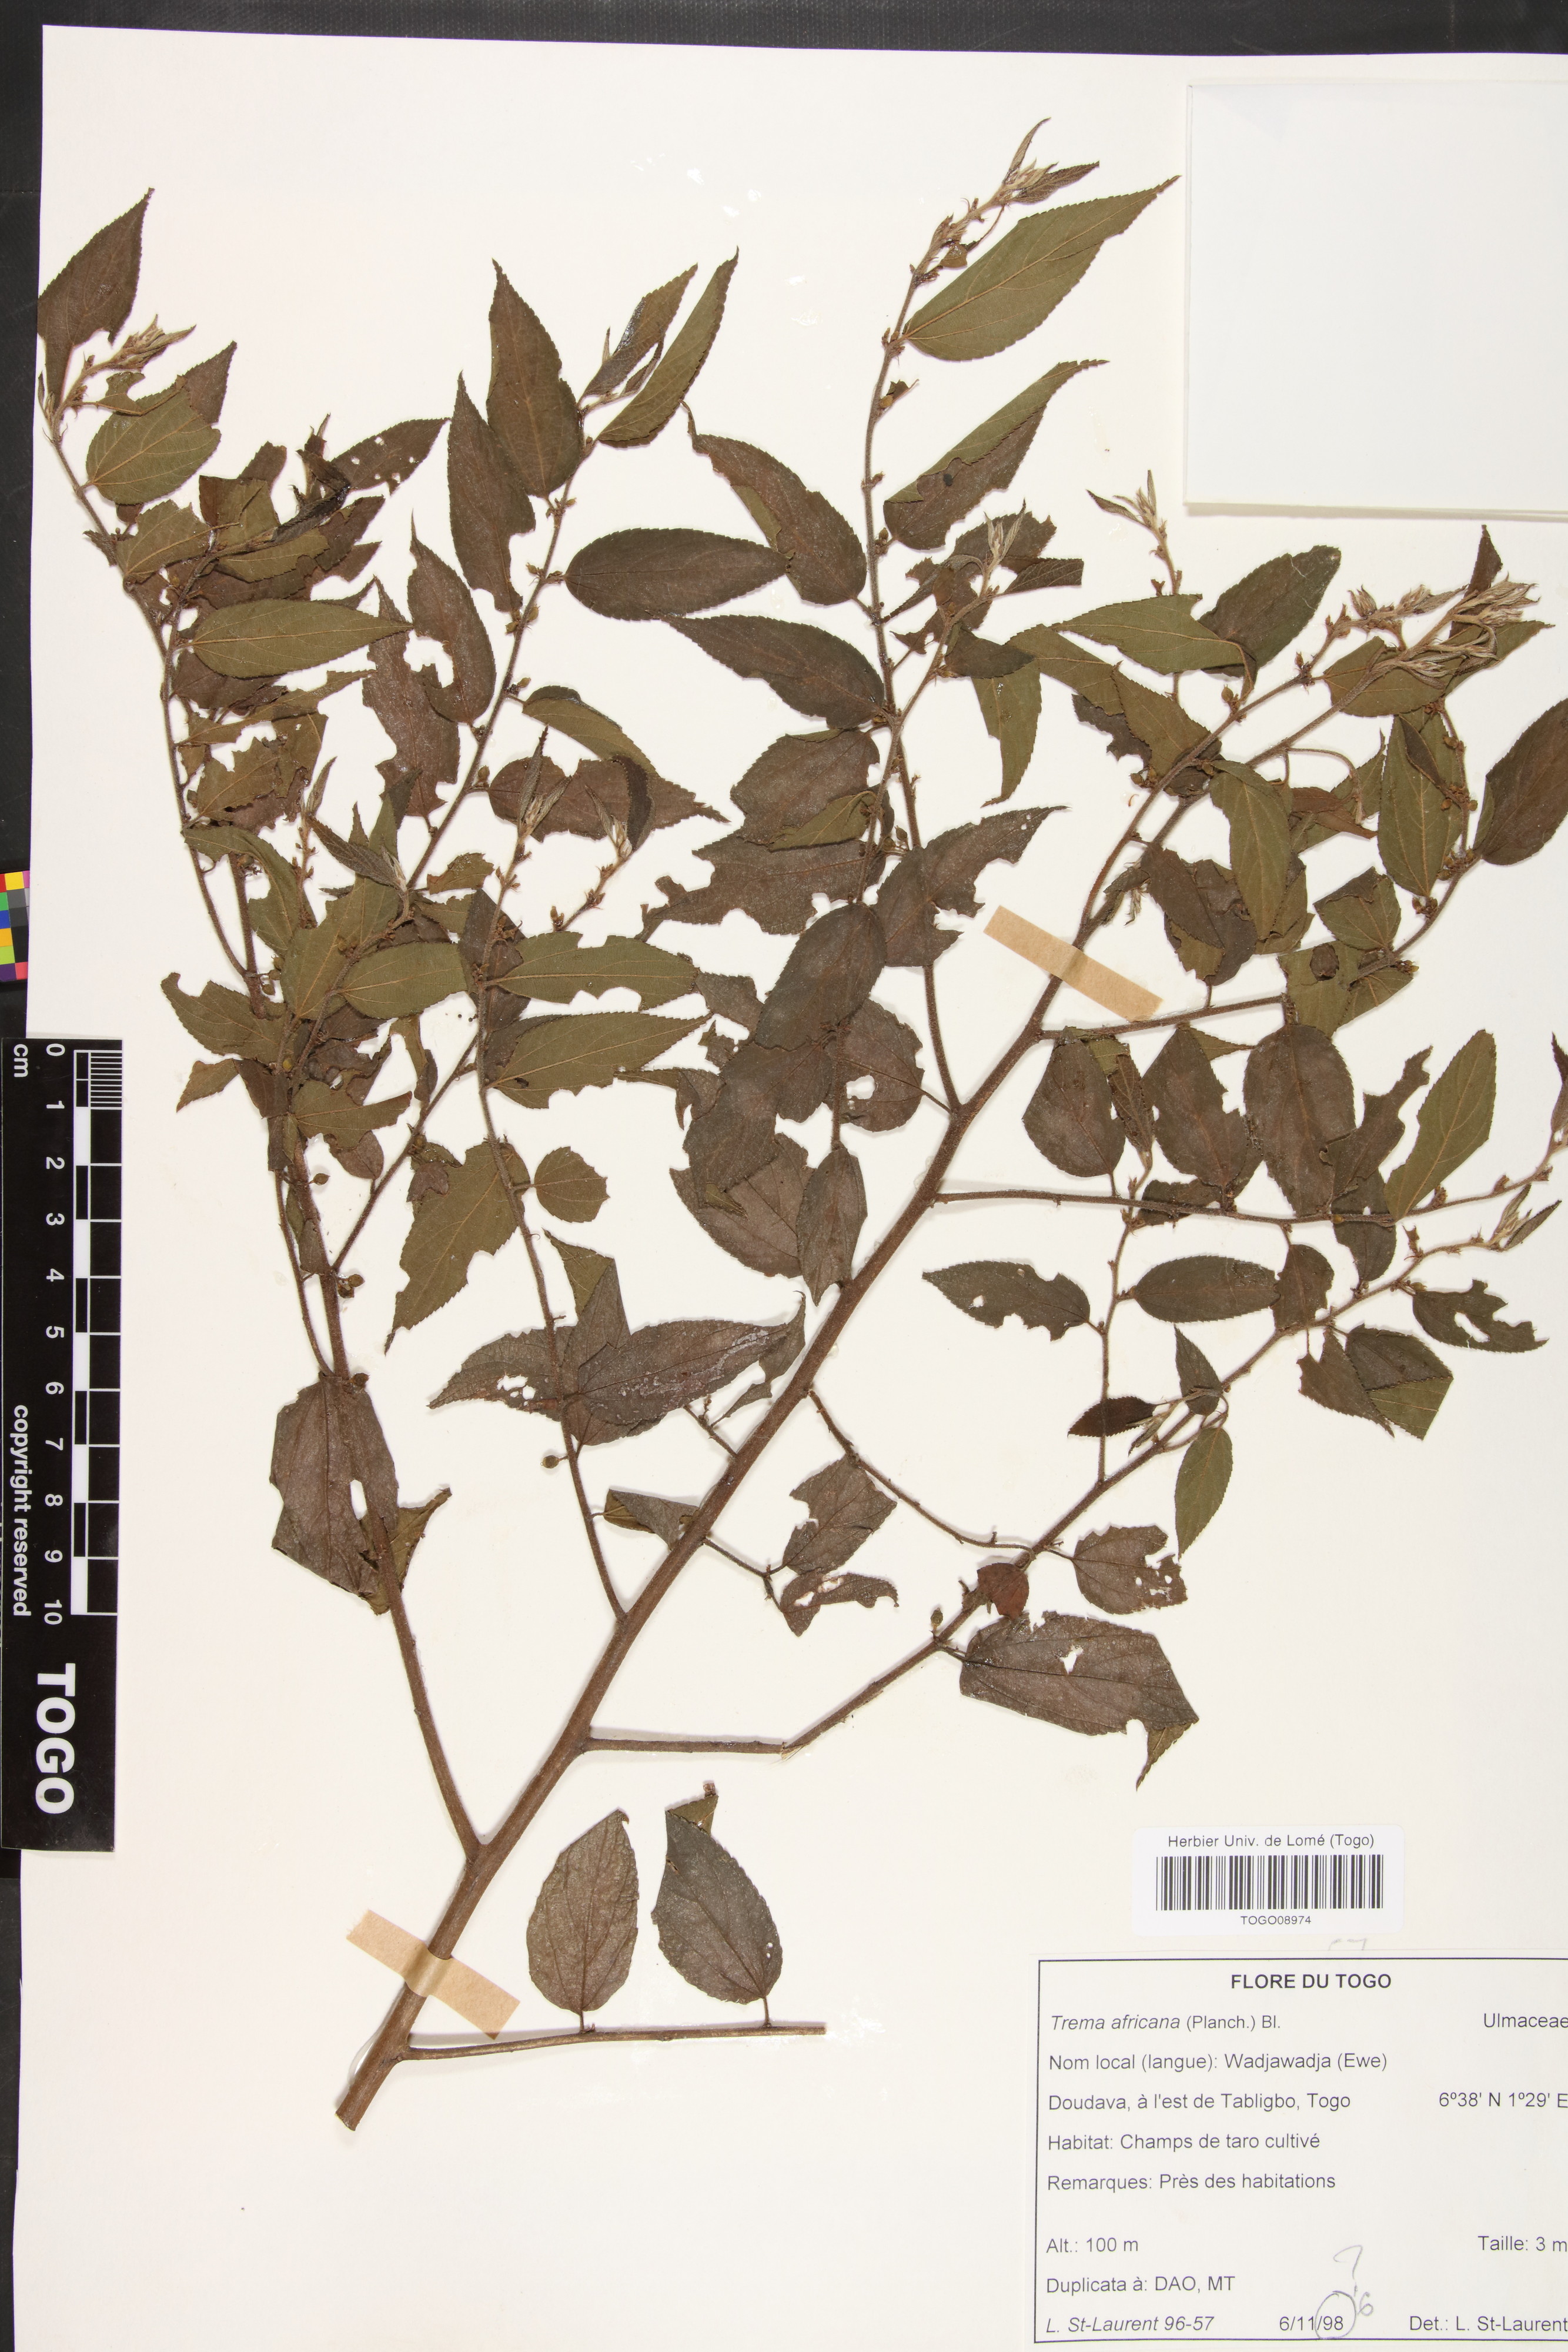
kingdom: Plantae
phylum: Tracheophyta
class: Magnoliopsida
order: Rosales
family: Cannabaceae
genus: Trema
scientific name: Trema orientale
